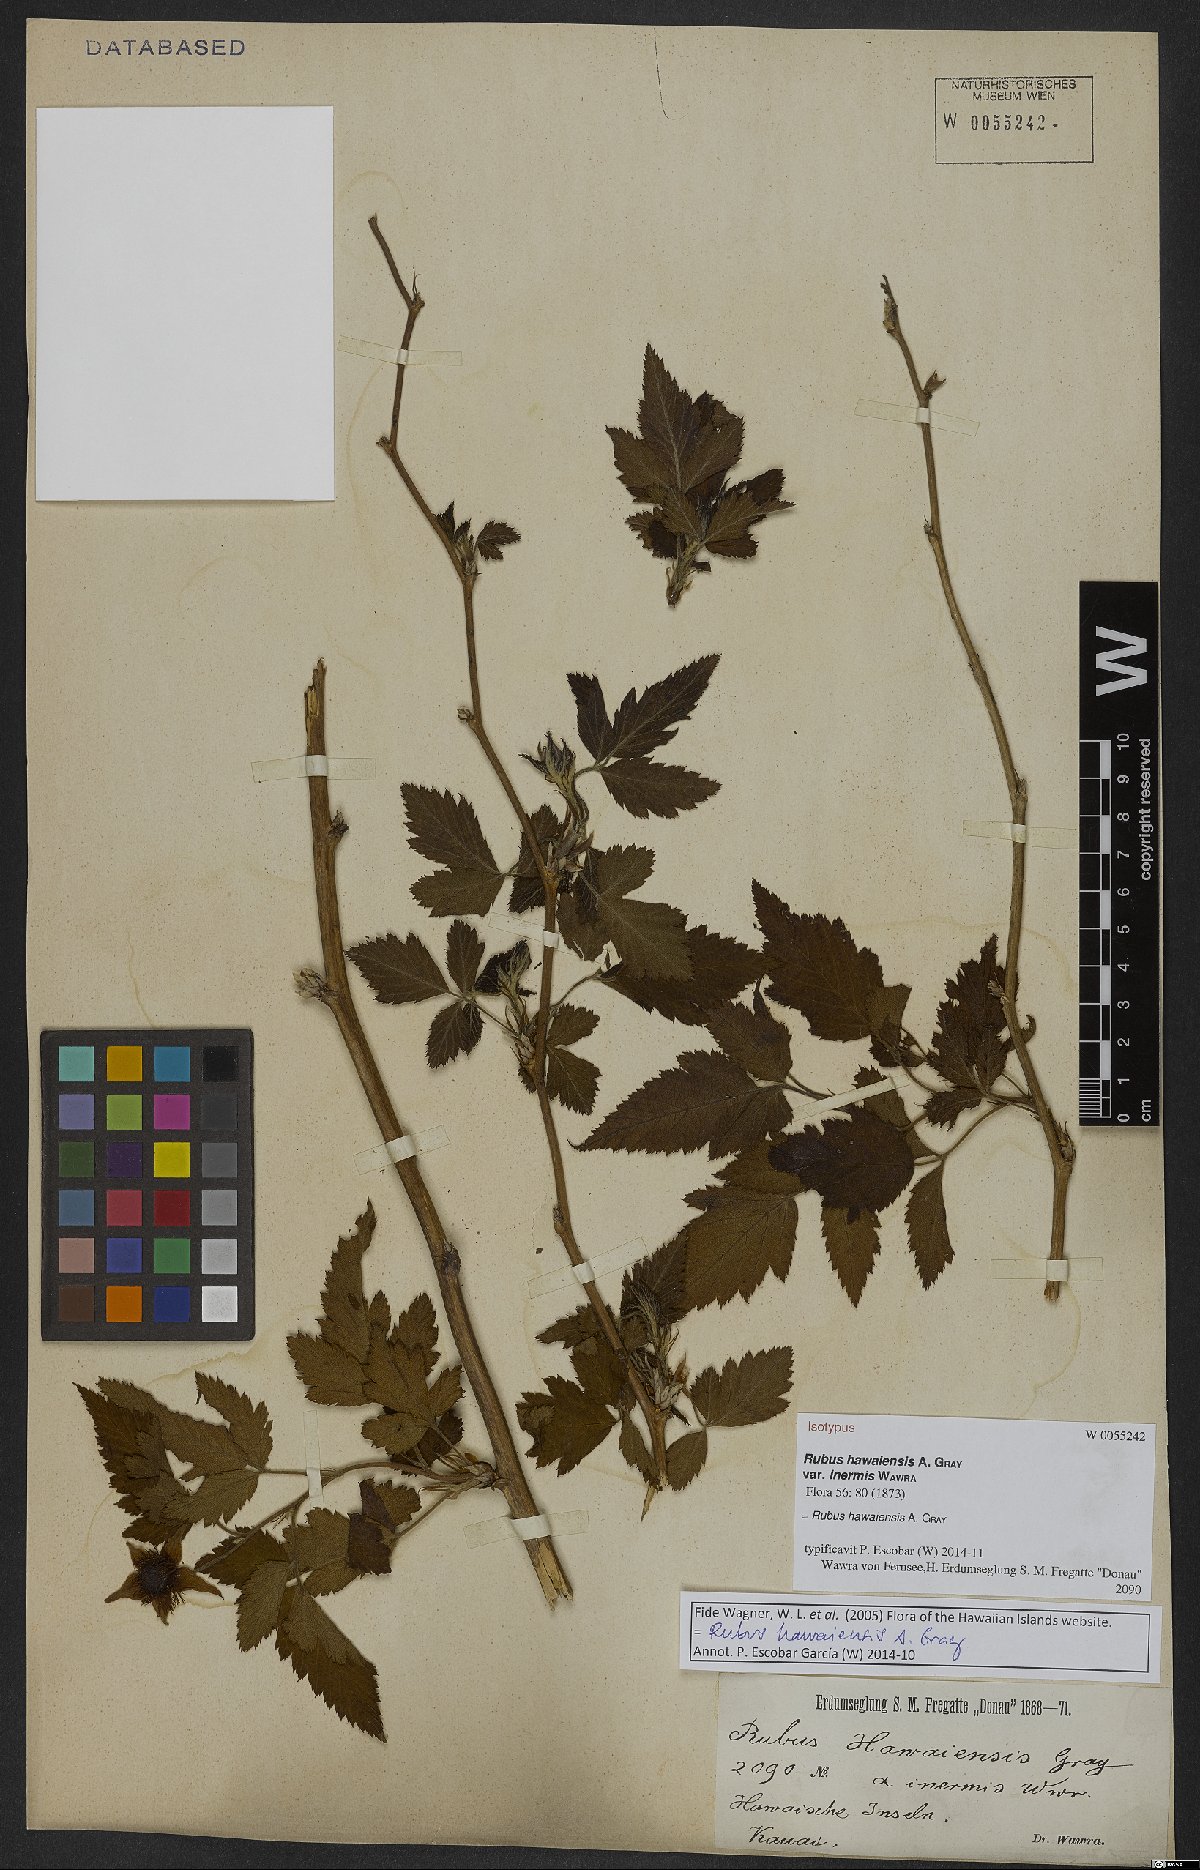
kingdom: Plantae
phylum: Tracheophyta
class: Magnoliopsida
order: Rosales
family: Rosaceae
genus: Rubus
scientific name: Rubus hawaiensis
